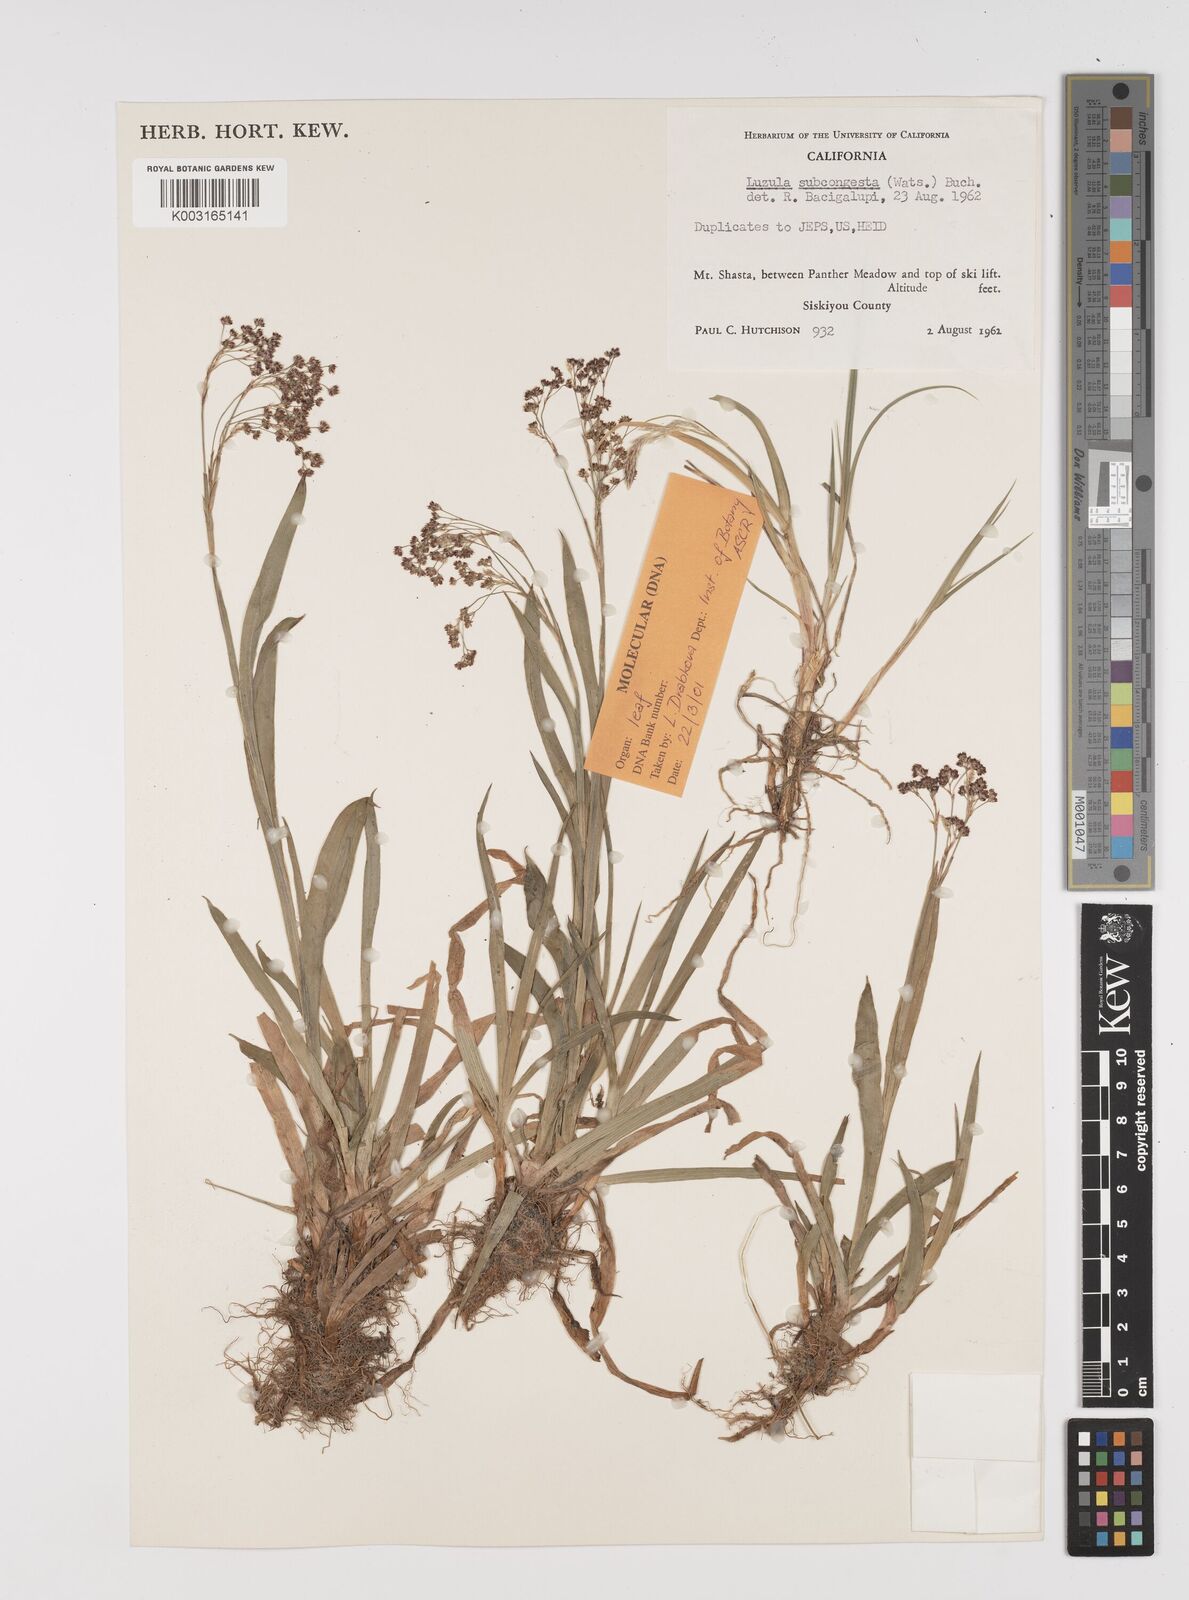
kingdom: Plantae
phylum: Tracheophyta
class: Liliopsida
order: Poales
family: Juncaceae
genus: Luzula
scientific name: Luzula subcongesta
